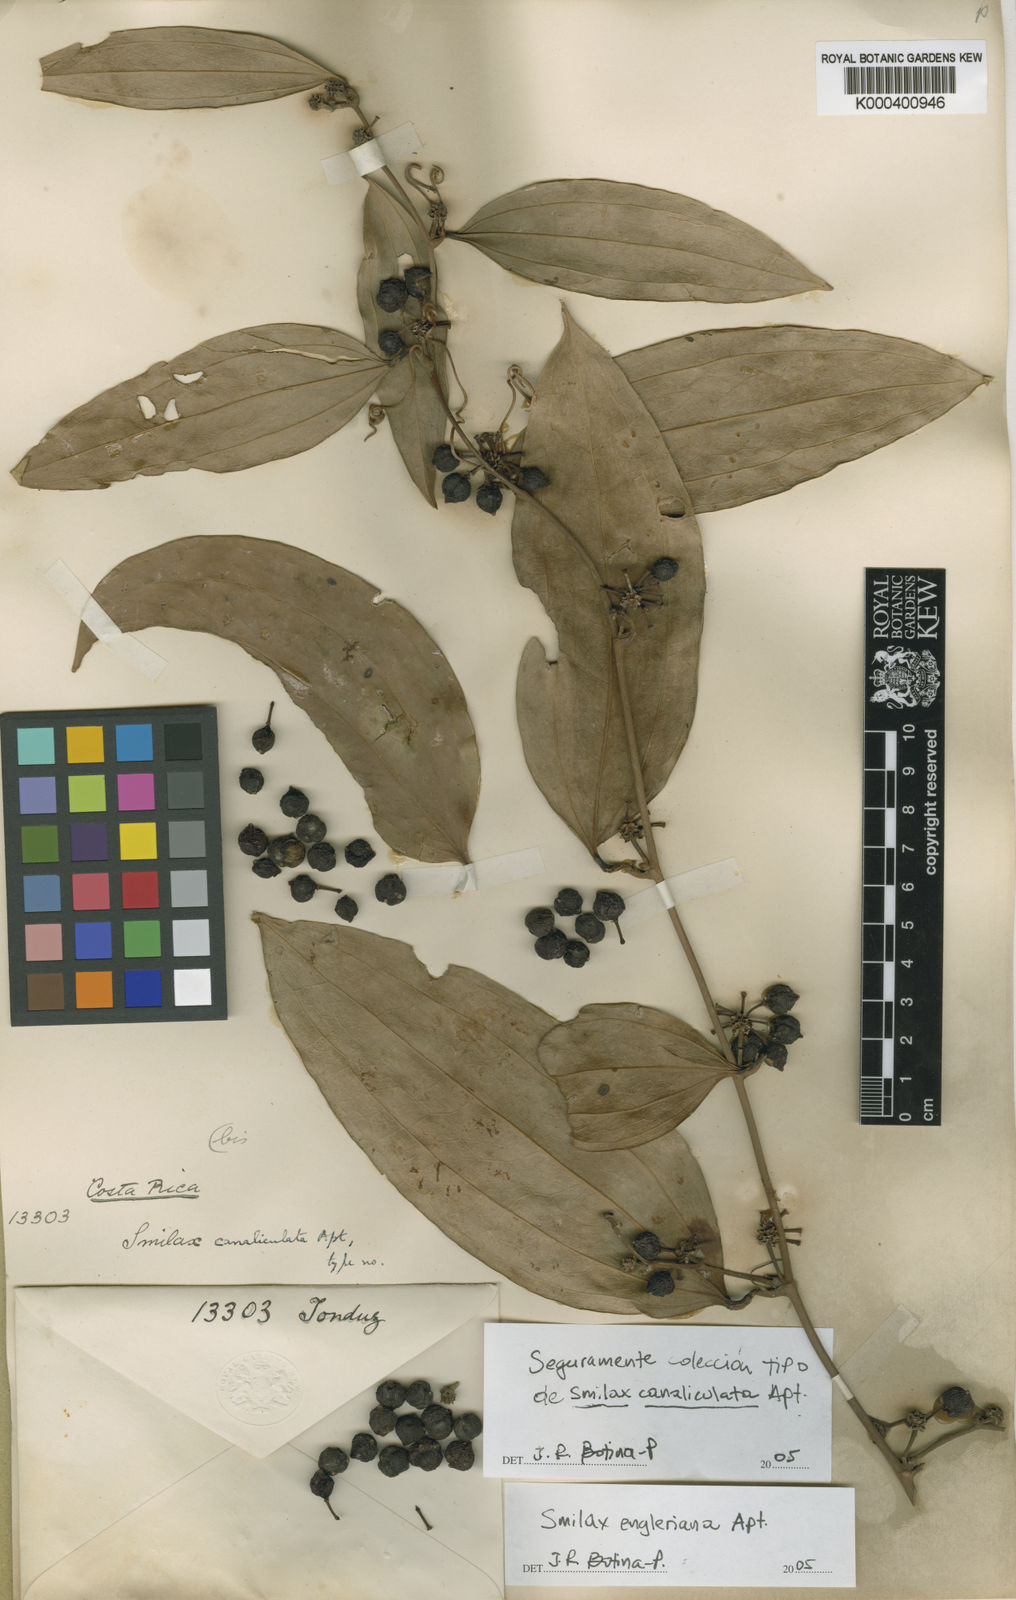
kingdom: Plantae
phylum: Tracheophyta
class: Liliopsida
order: Liliales
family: Smilacaceae
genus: Smilax
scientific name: Smilax domingensis
